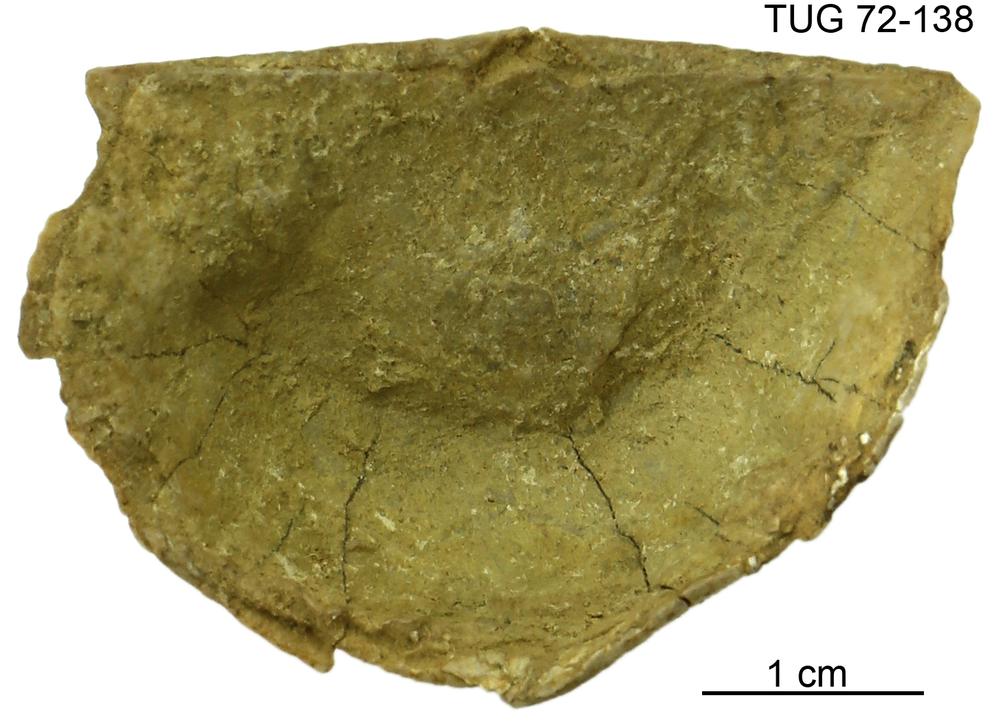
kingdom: Animalia
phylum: Brachiopoda
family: Strophomenidae
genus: Leptaena
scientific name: Leptaena
